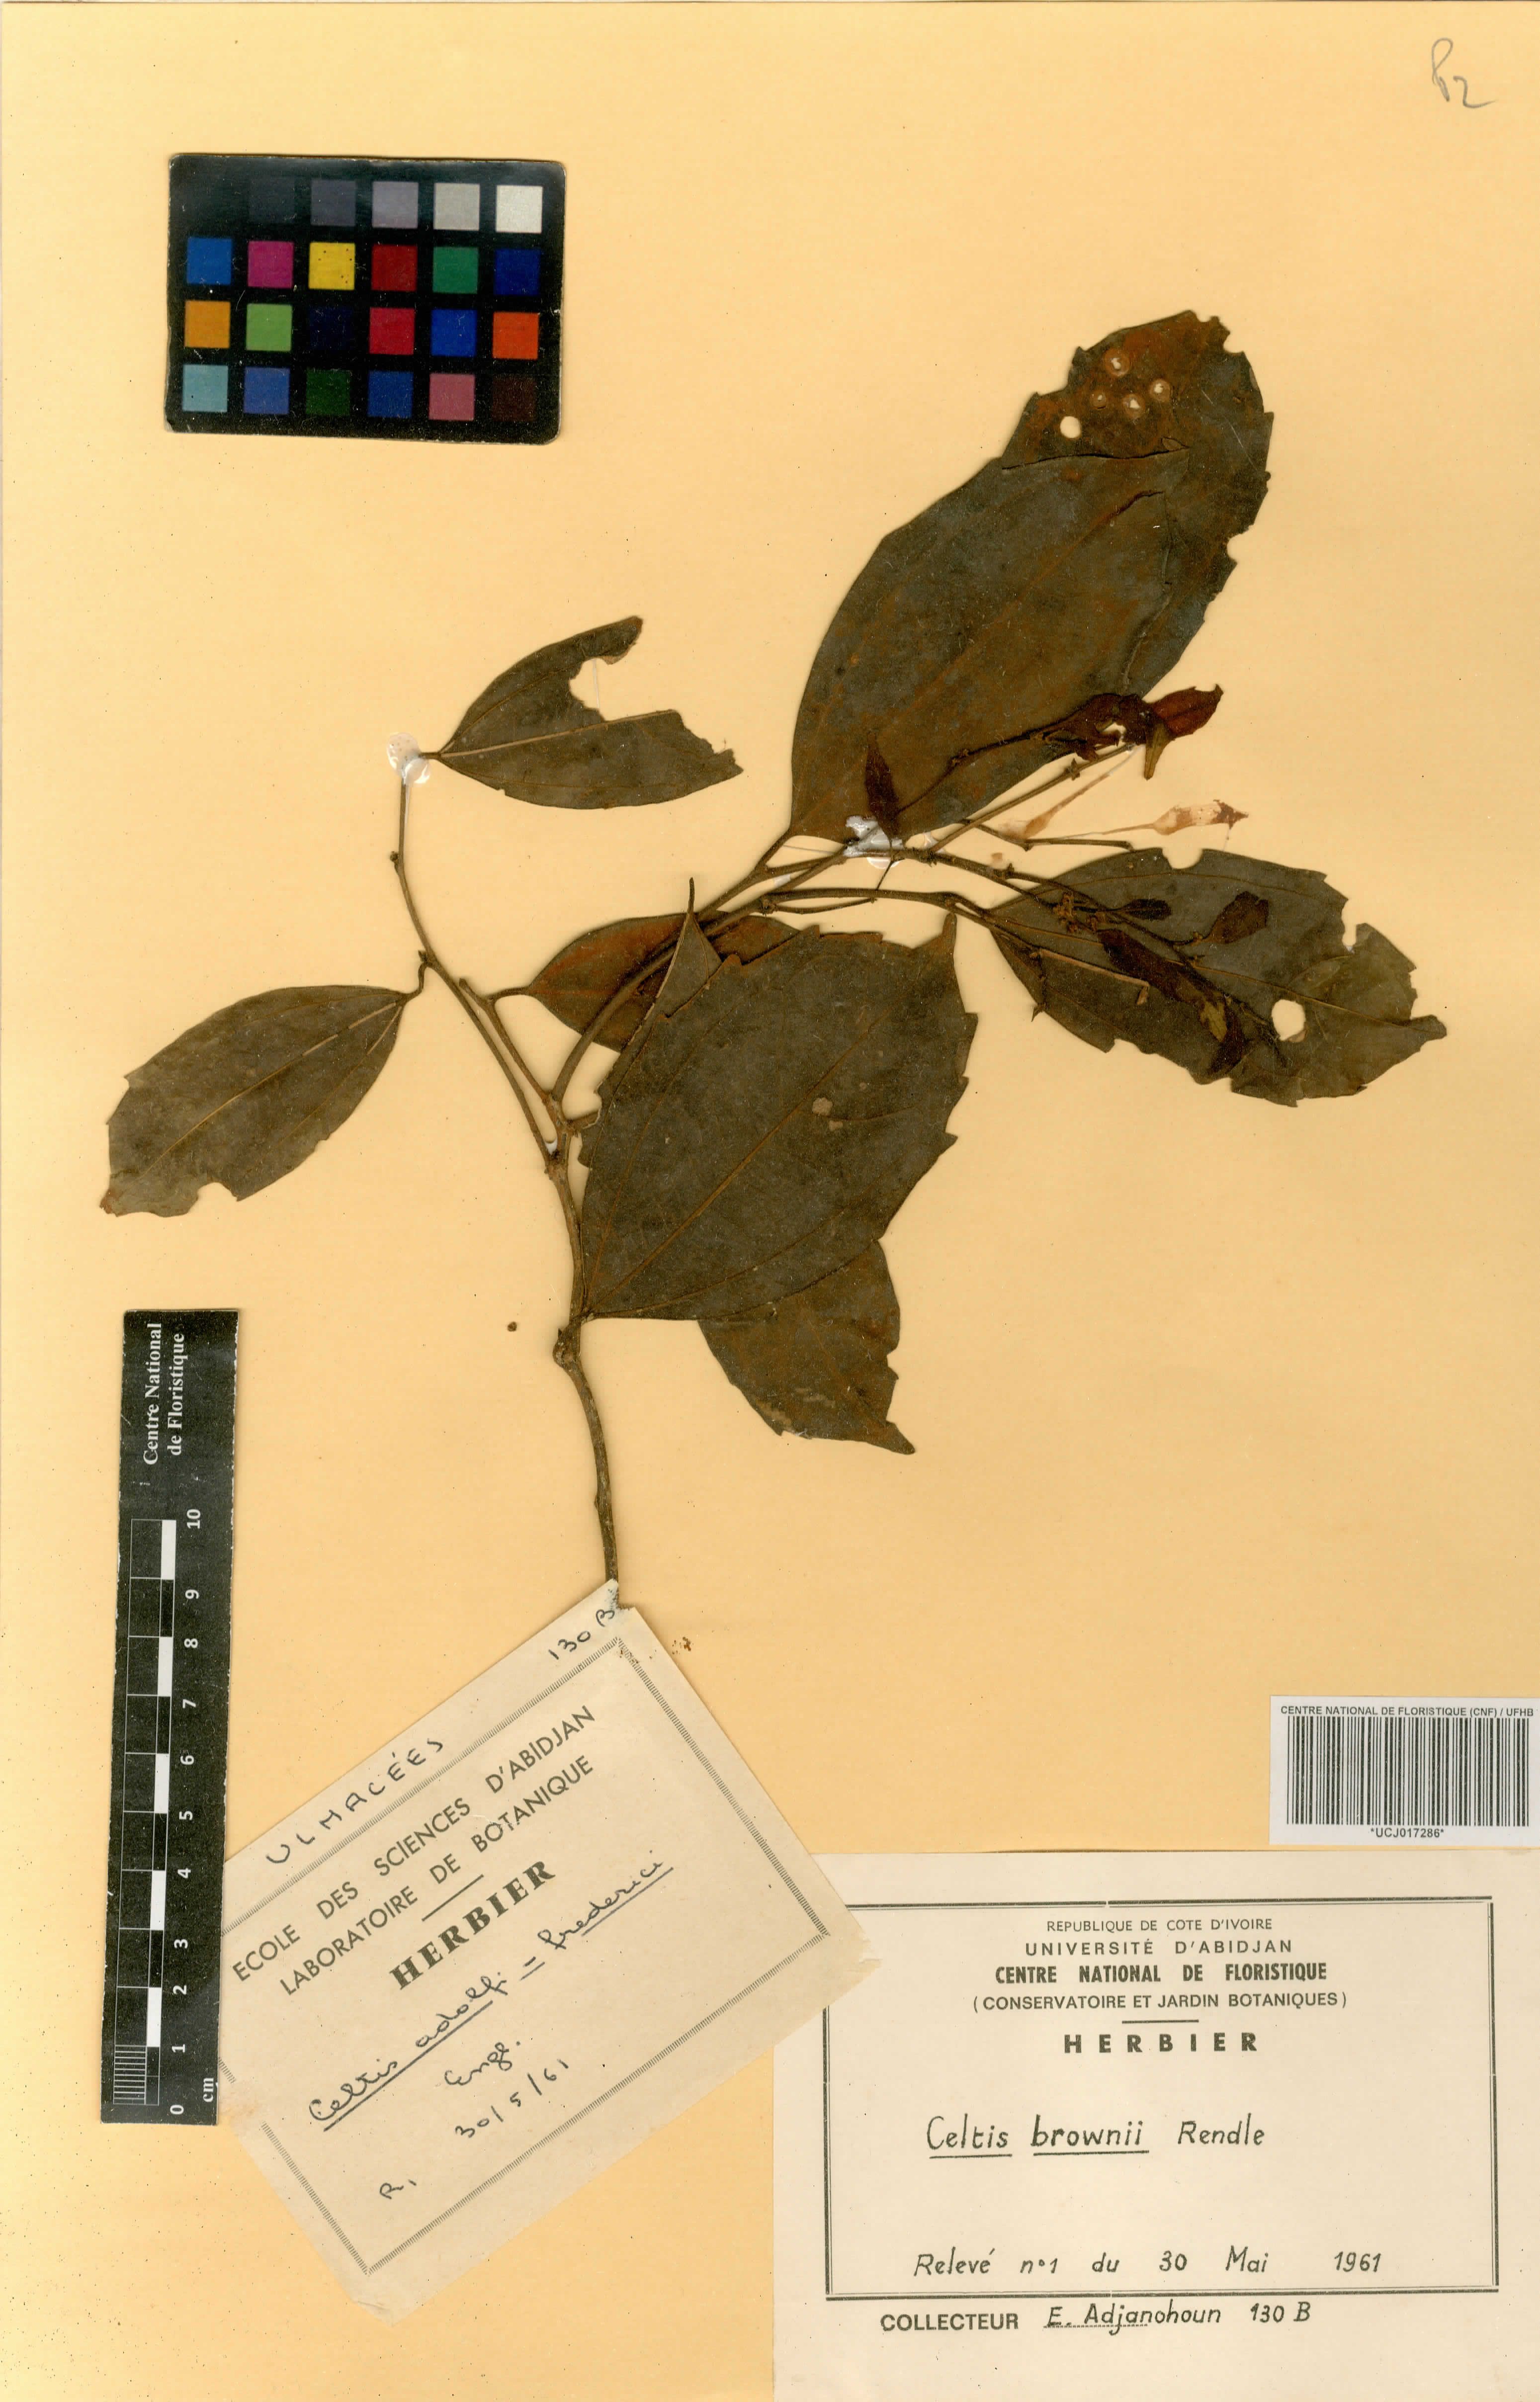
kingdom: Plantae
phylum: Tracheophyta
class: Magnoliopsida
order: Rosales
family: Cannabaceae
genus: Celtis
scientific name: Celtis philippensis
